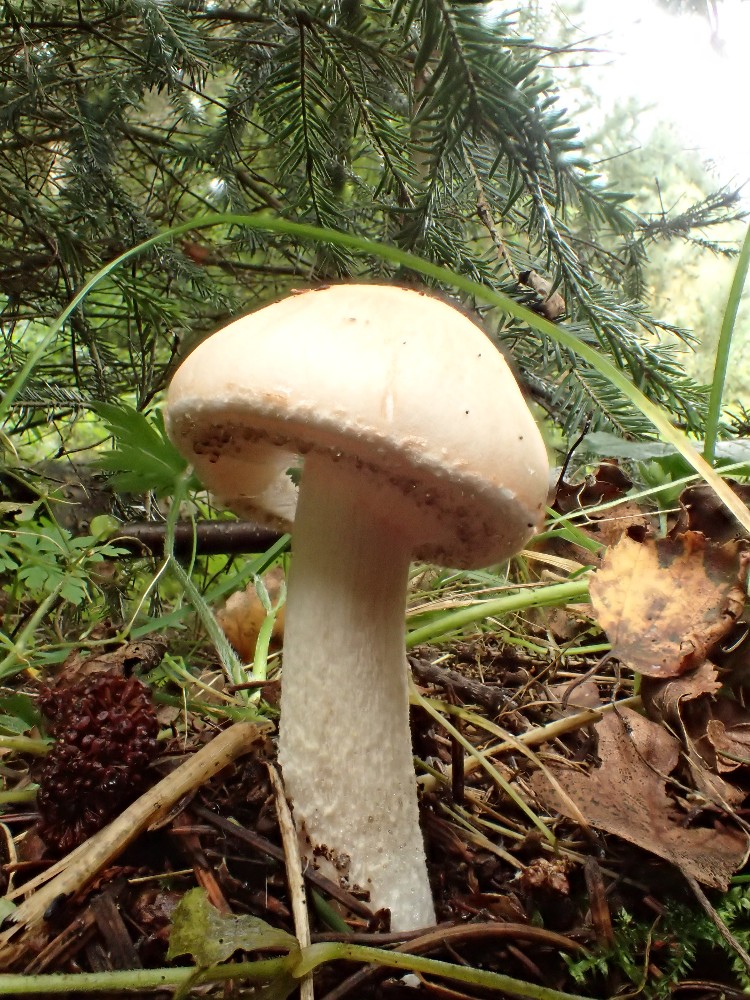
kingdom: Fungi
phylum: Basidiomycota
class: Agaricomycetes
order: Agaricales
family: Amanitaceae
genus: Limacellopsis
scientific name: Limacellopsis guttata
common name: tåre-snekkehat
